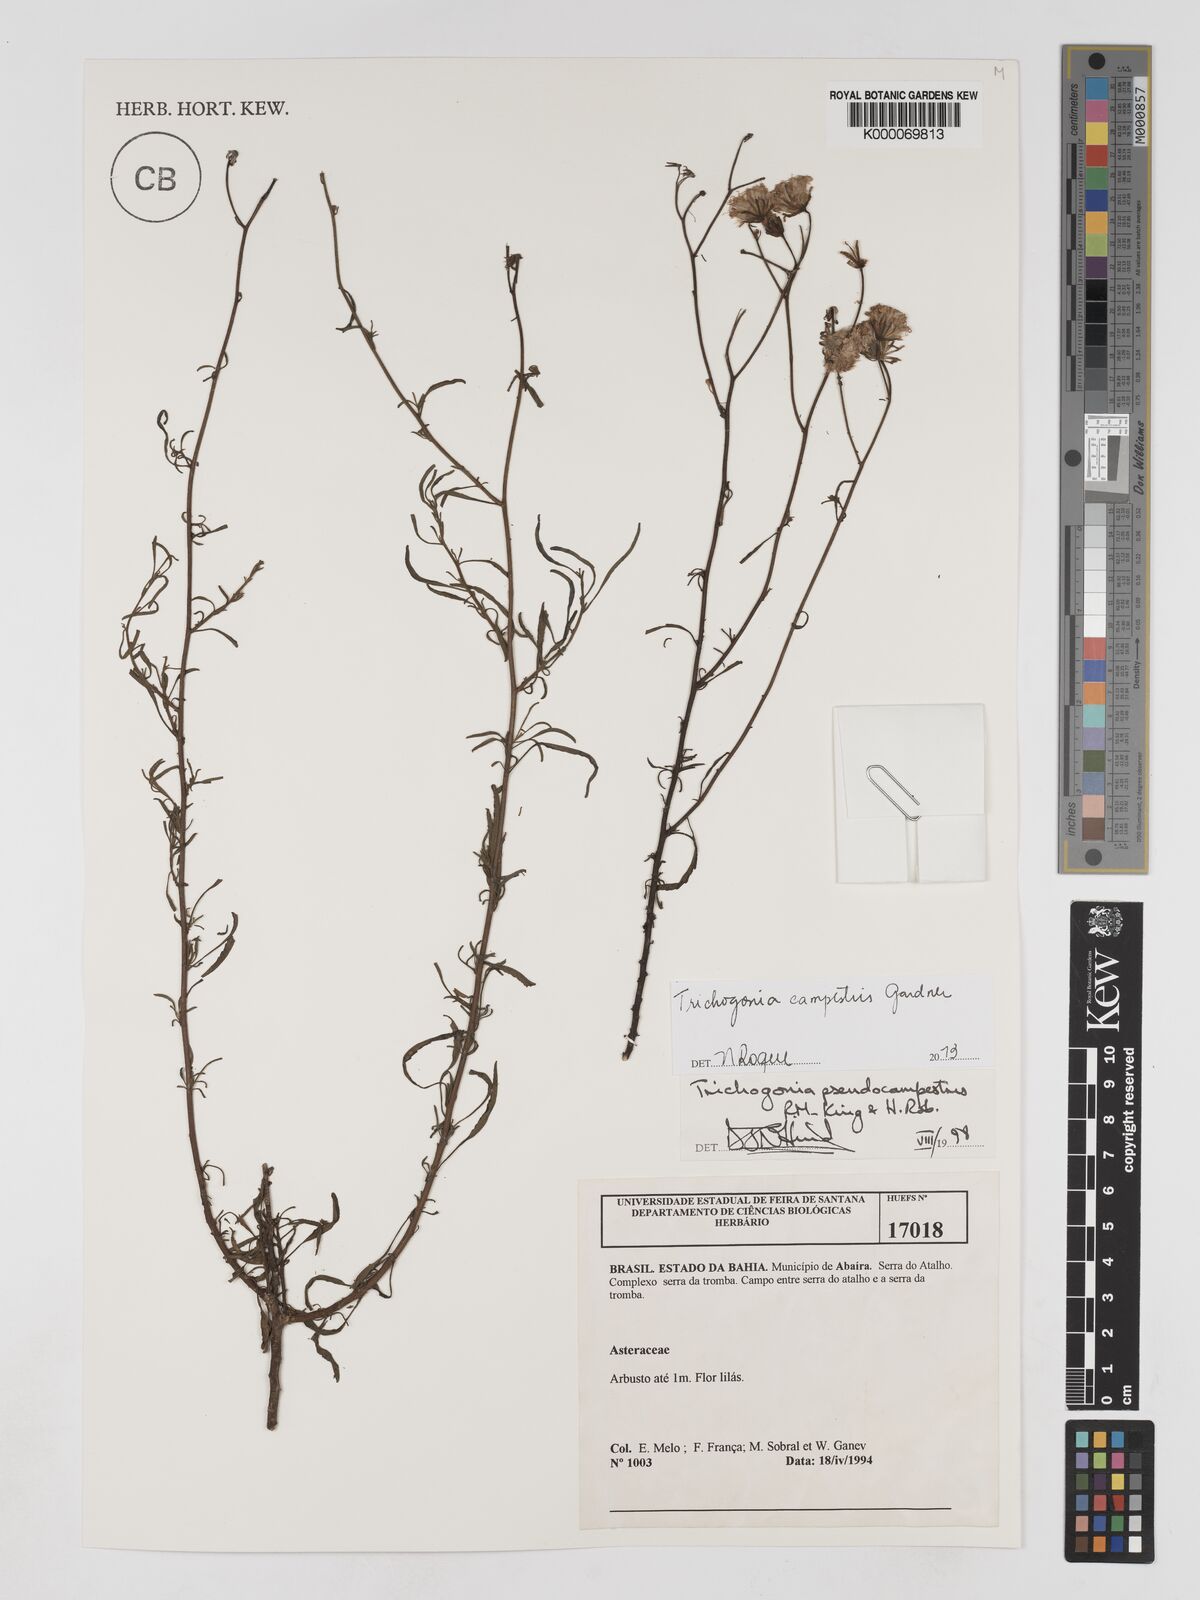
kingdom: Plantae
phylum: Tracheophyta
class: Magnoliopsida
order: Asterales
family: Asteraceae
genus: Trichogonia
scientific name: Trichogonia campestris
